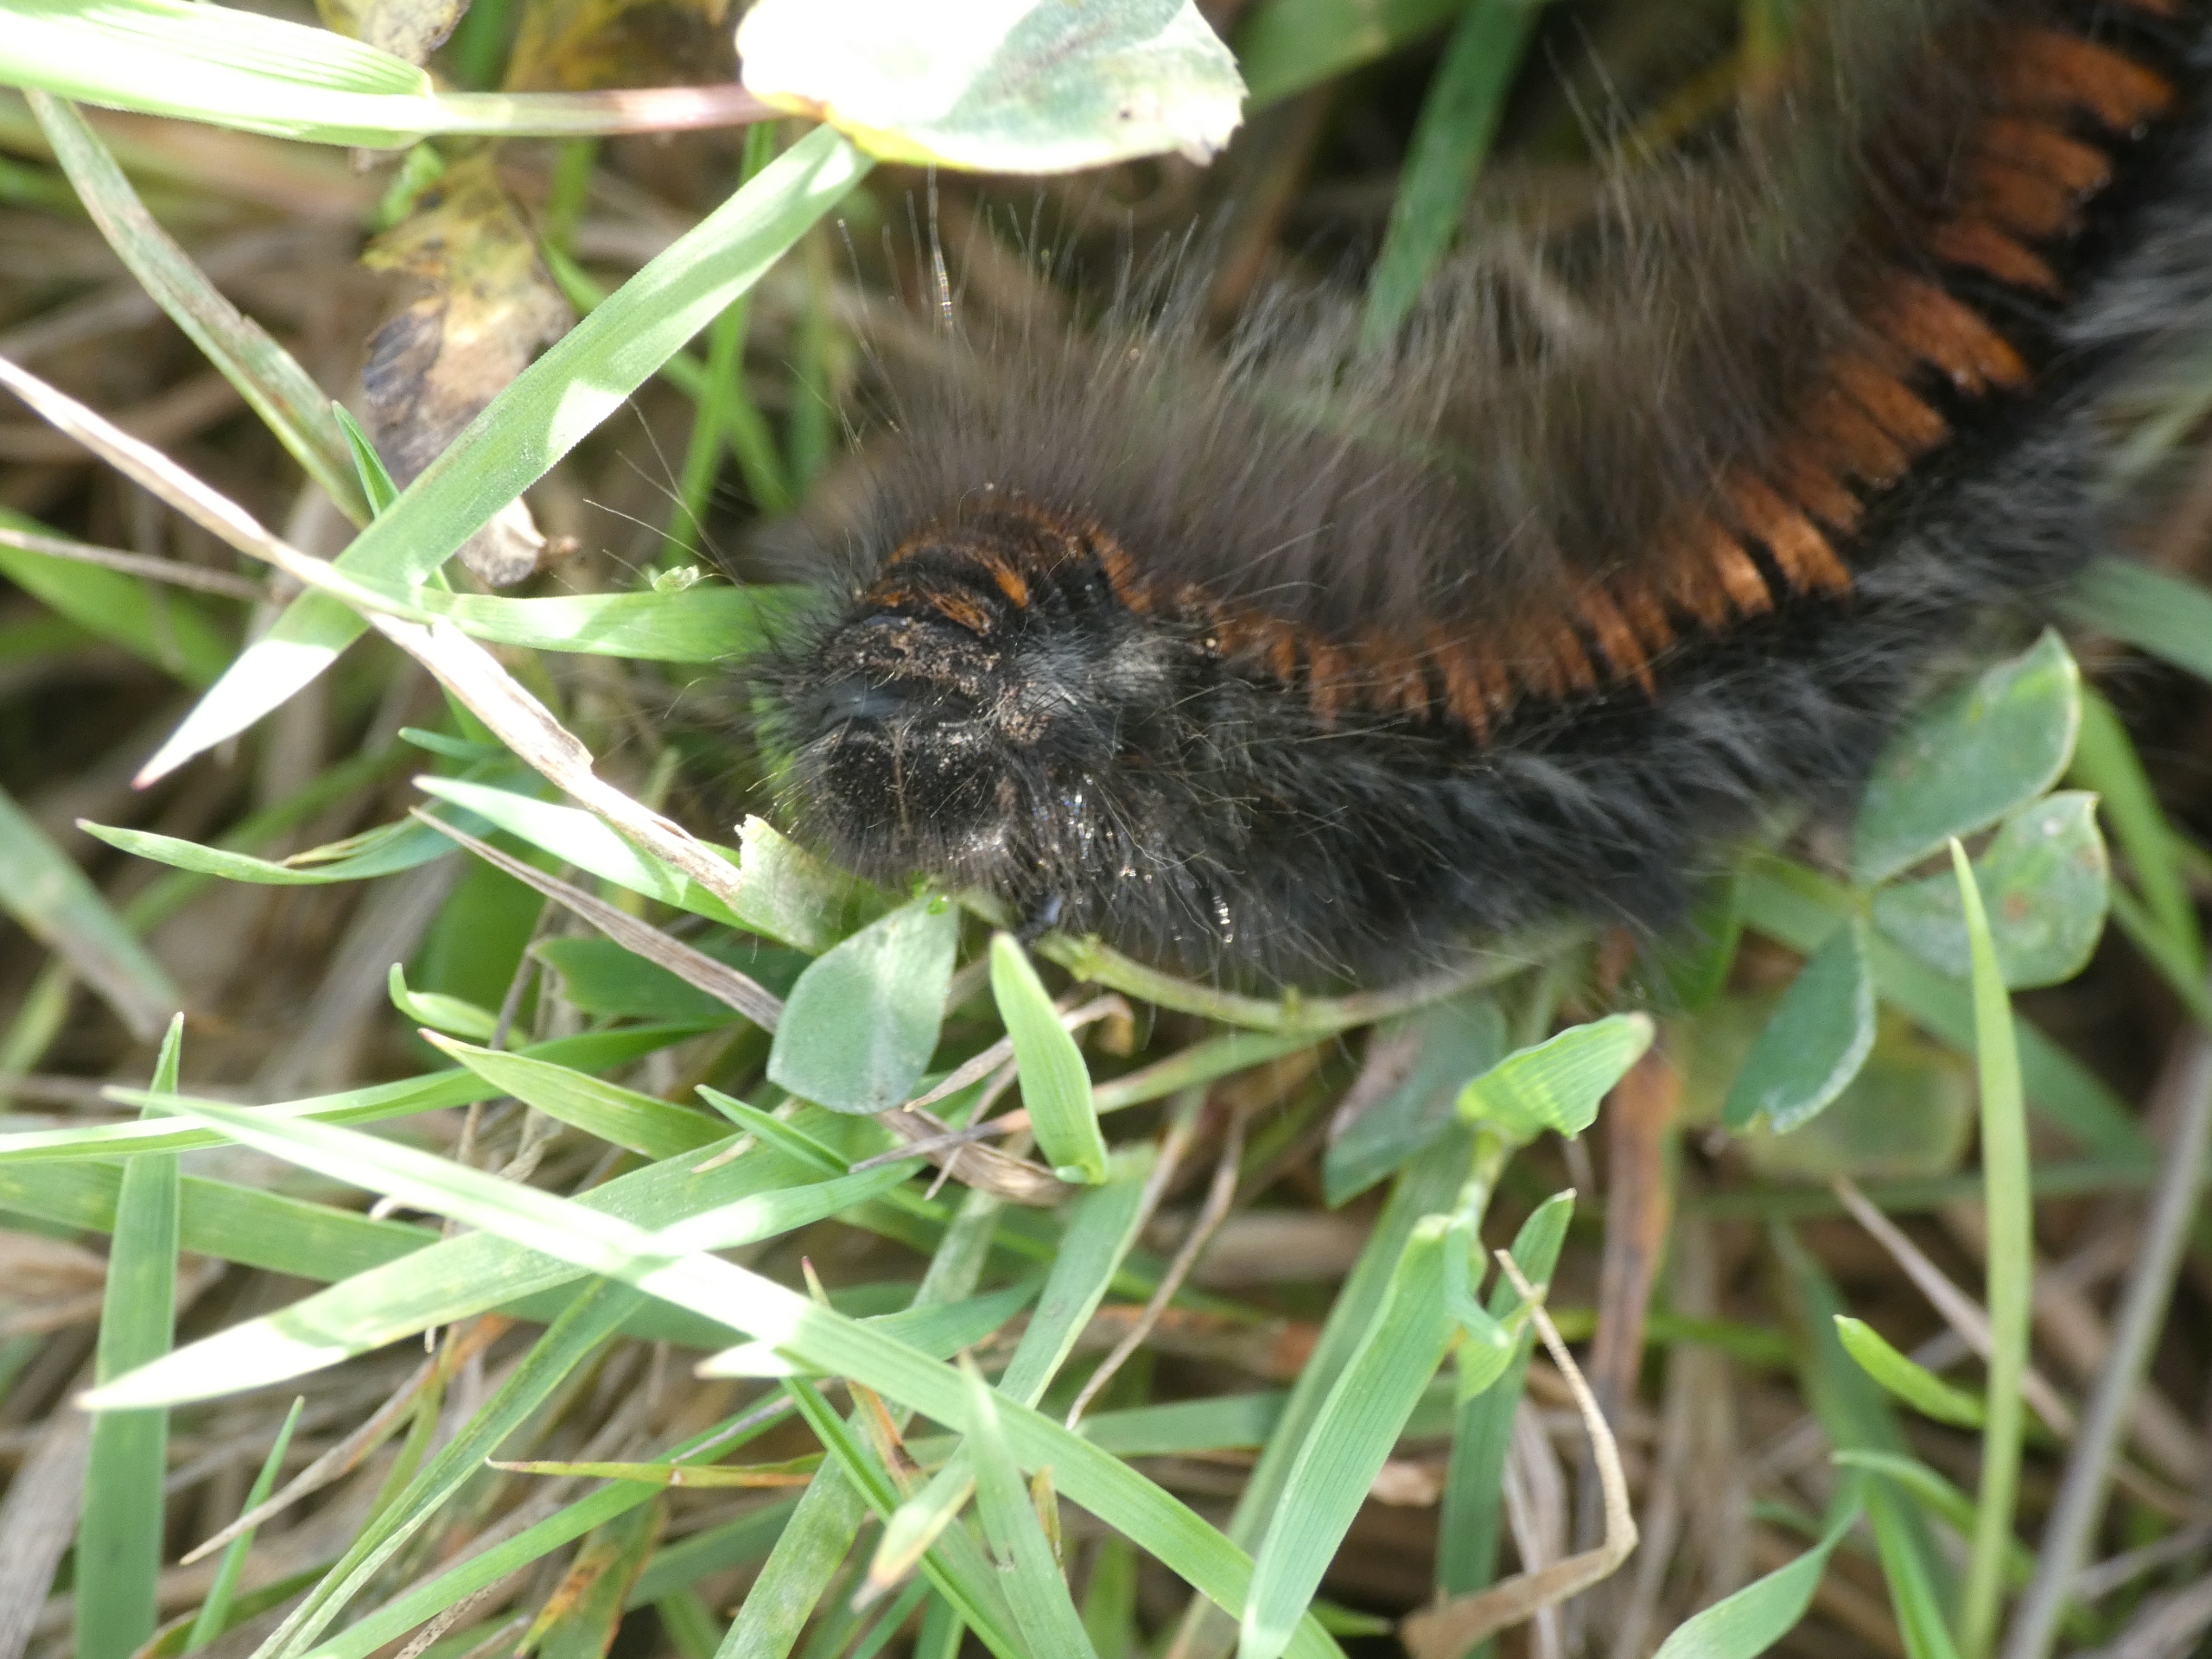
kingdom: Animalia
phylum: Arthropoda
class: Insecta
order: Lepidoptera
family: Lasiocampidae
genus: Macrothylacia
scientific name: Macrothylacia rubi
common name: Brombærspinder
